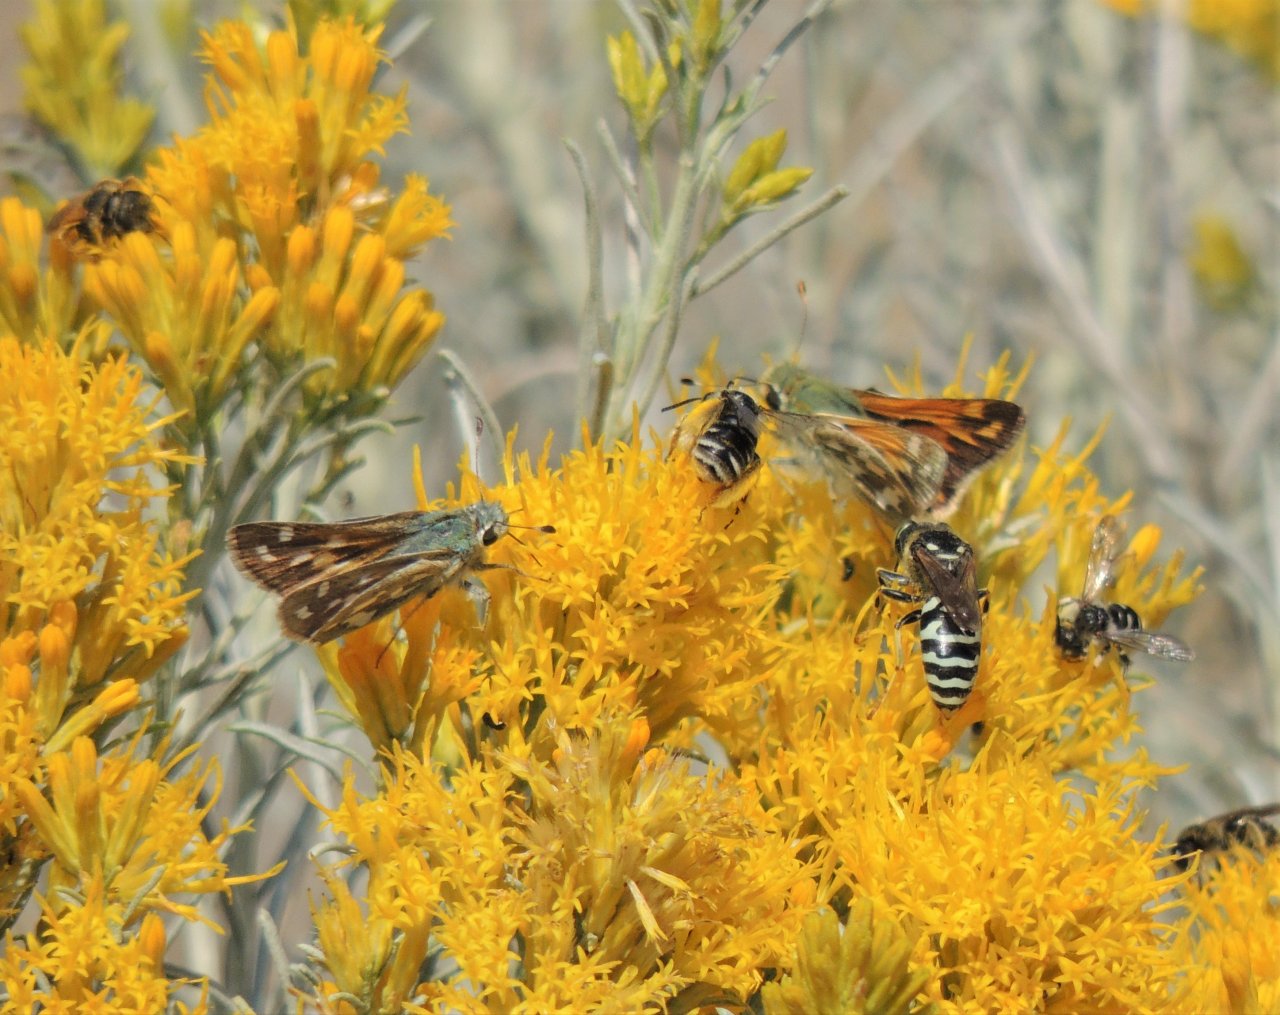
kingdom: Animalia
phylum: Arthropoda
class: Insecta
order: Lepidoptera
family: Hesperiidae
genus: Hesperia
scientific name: Hesperia comma
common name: Western Branded Skipper
